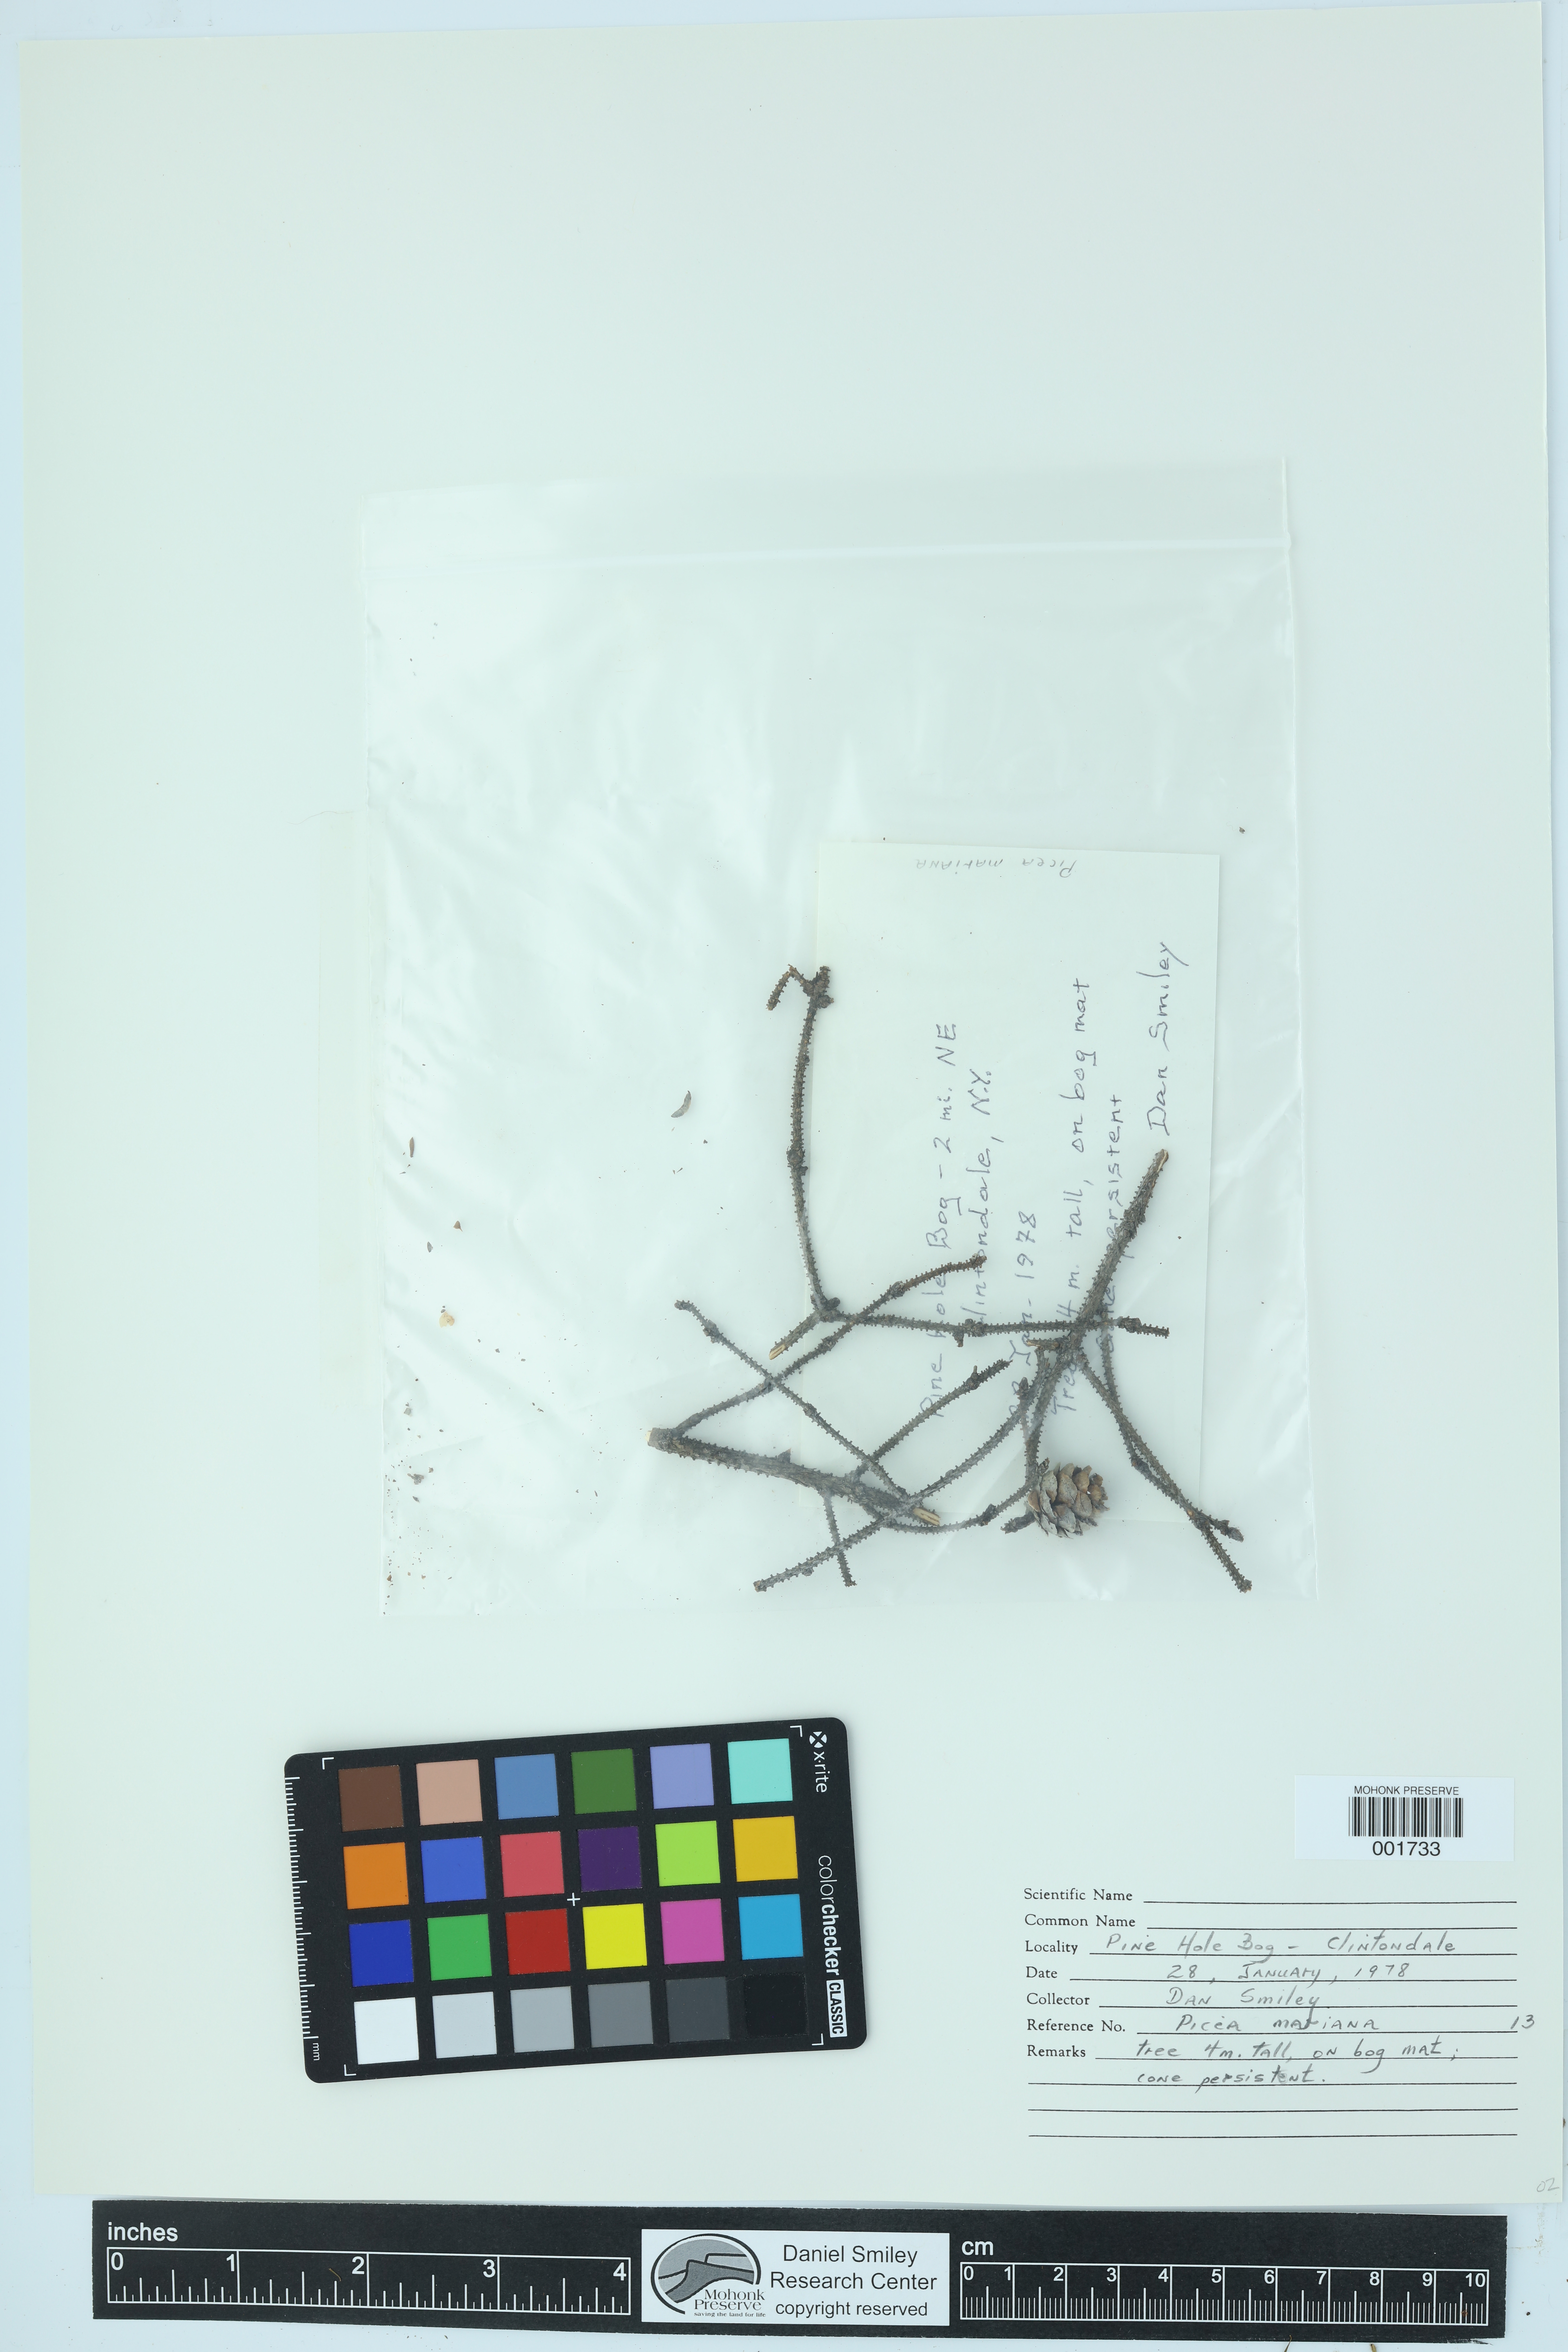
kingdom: Plantae
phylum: Tracheophyta
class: Pinopsida
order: Pinales
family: Pinaceae
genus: Picea
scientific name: Picea mariana
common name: Black spruce
